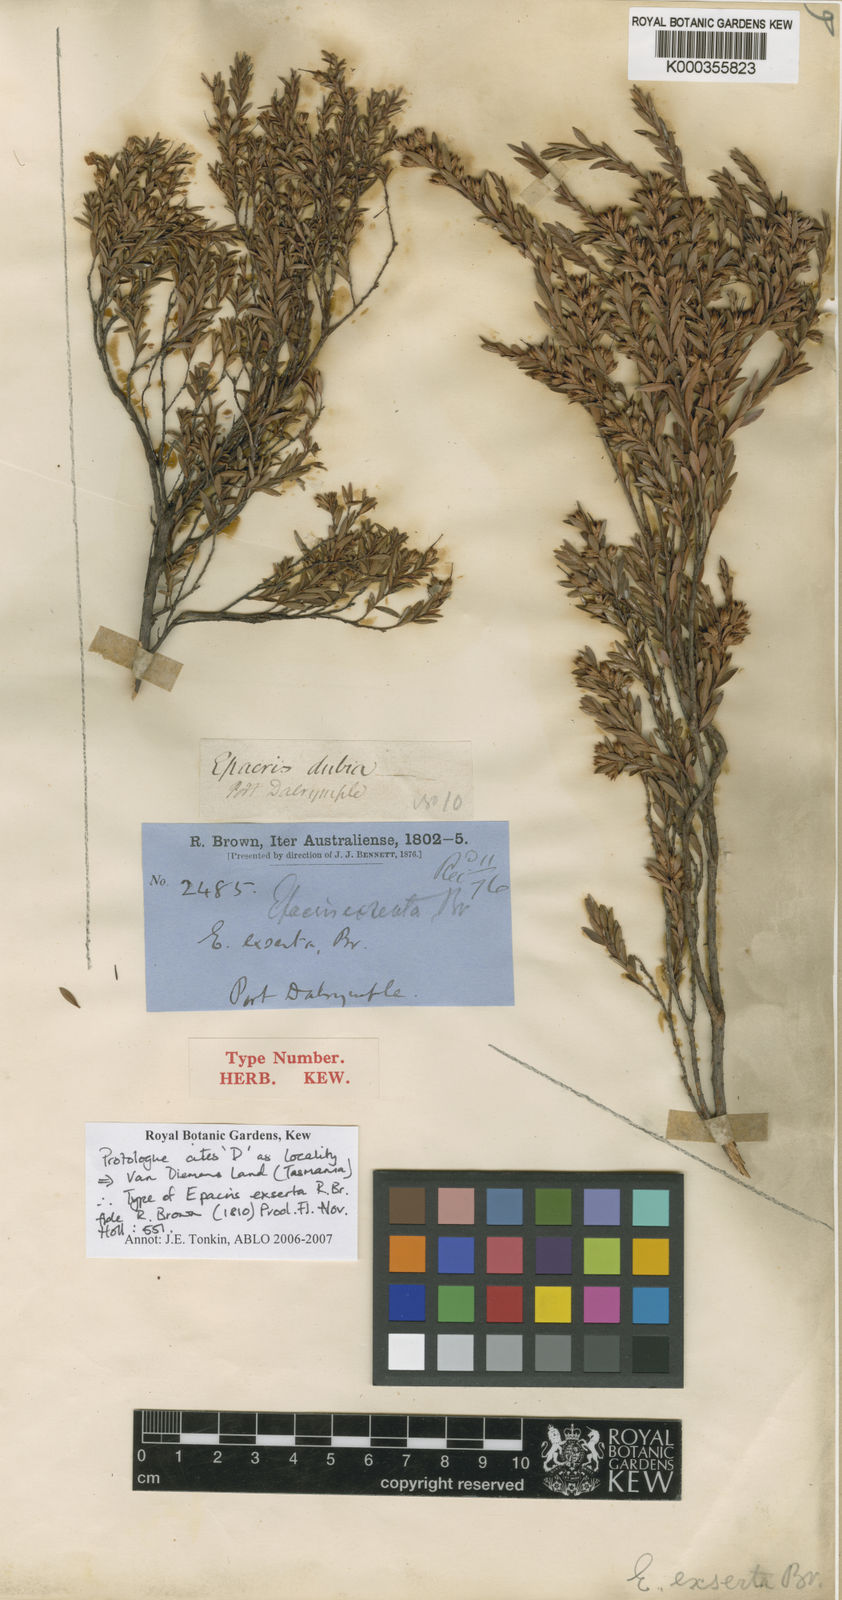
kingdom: Plantae
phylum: Tracheophyta
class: Magnoliopsida
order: Ericales
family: Ericaceae
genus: Epacris
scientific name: Epacris exserta
